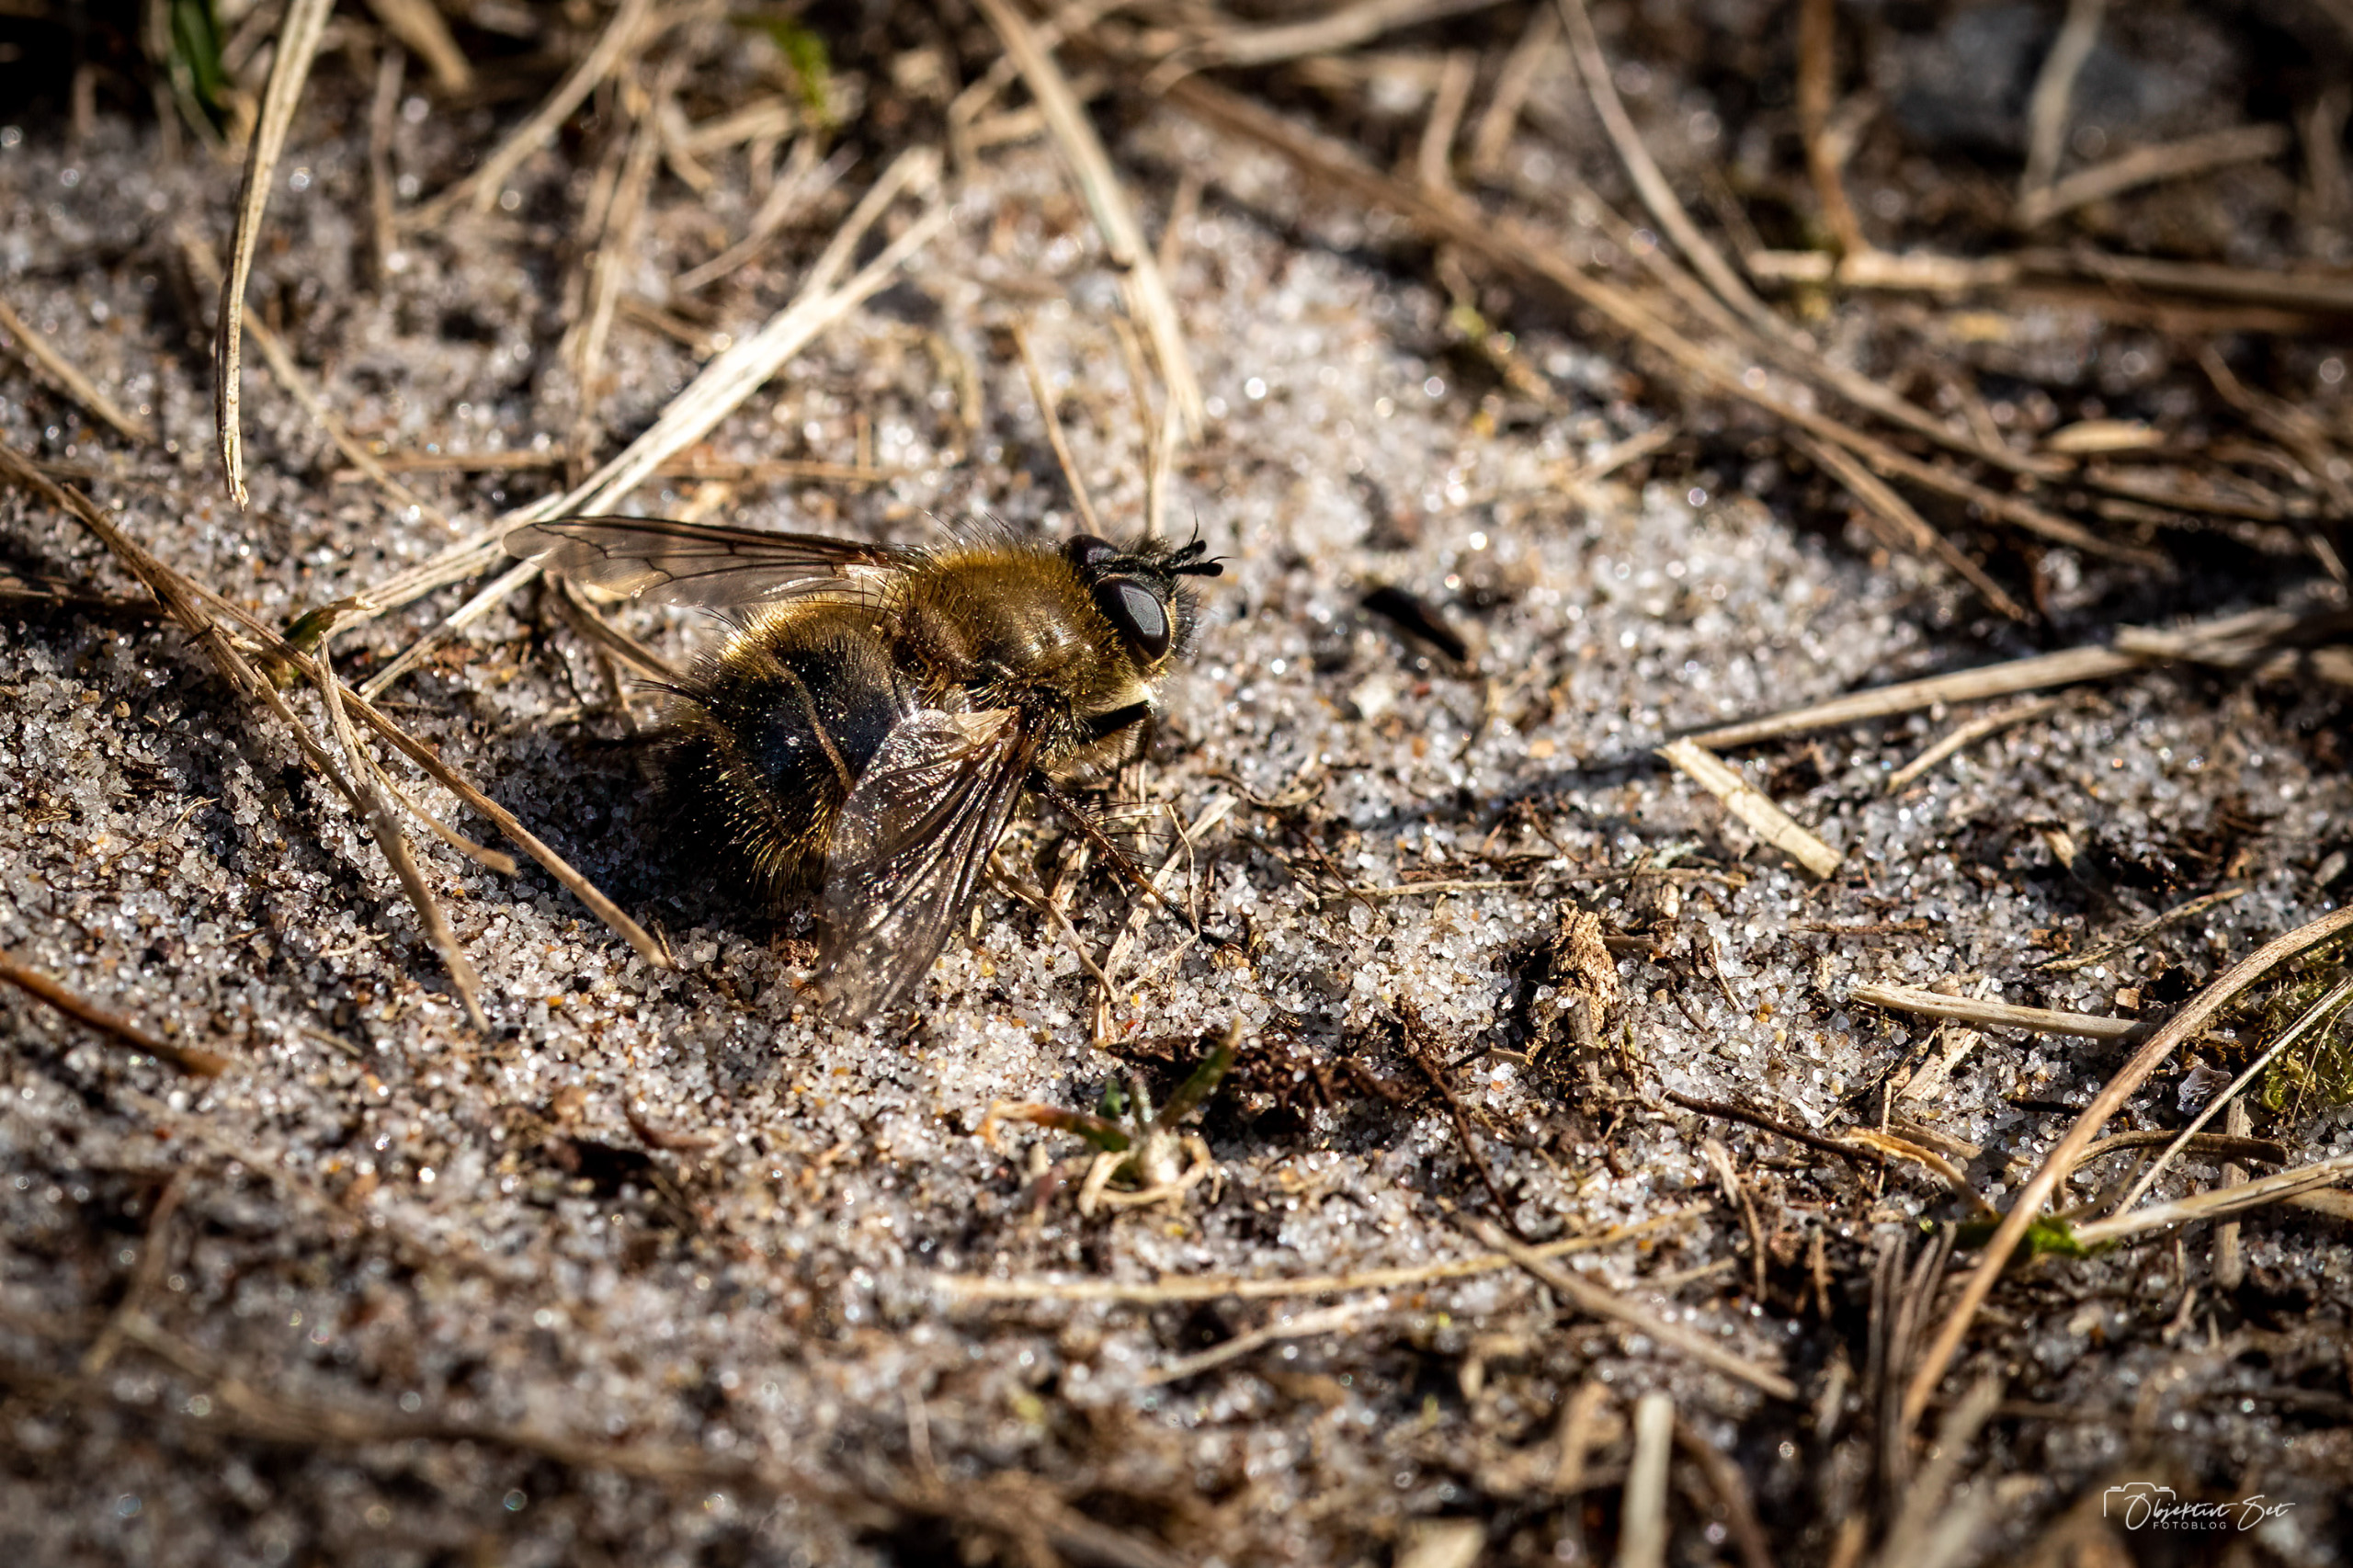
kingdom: Animalia
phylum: Arthropoda
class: Insecta
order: Diptera
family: Tachinidae
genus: Tachina
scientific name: Tachina ursina
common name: Bjørnesnylteflue
